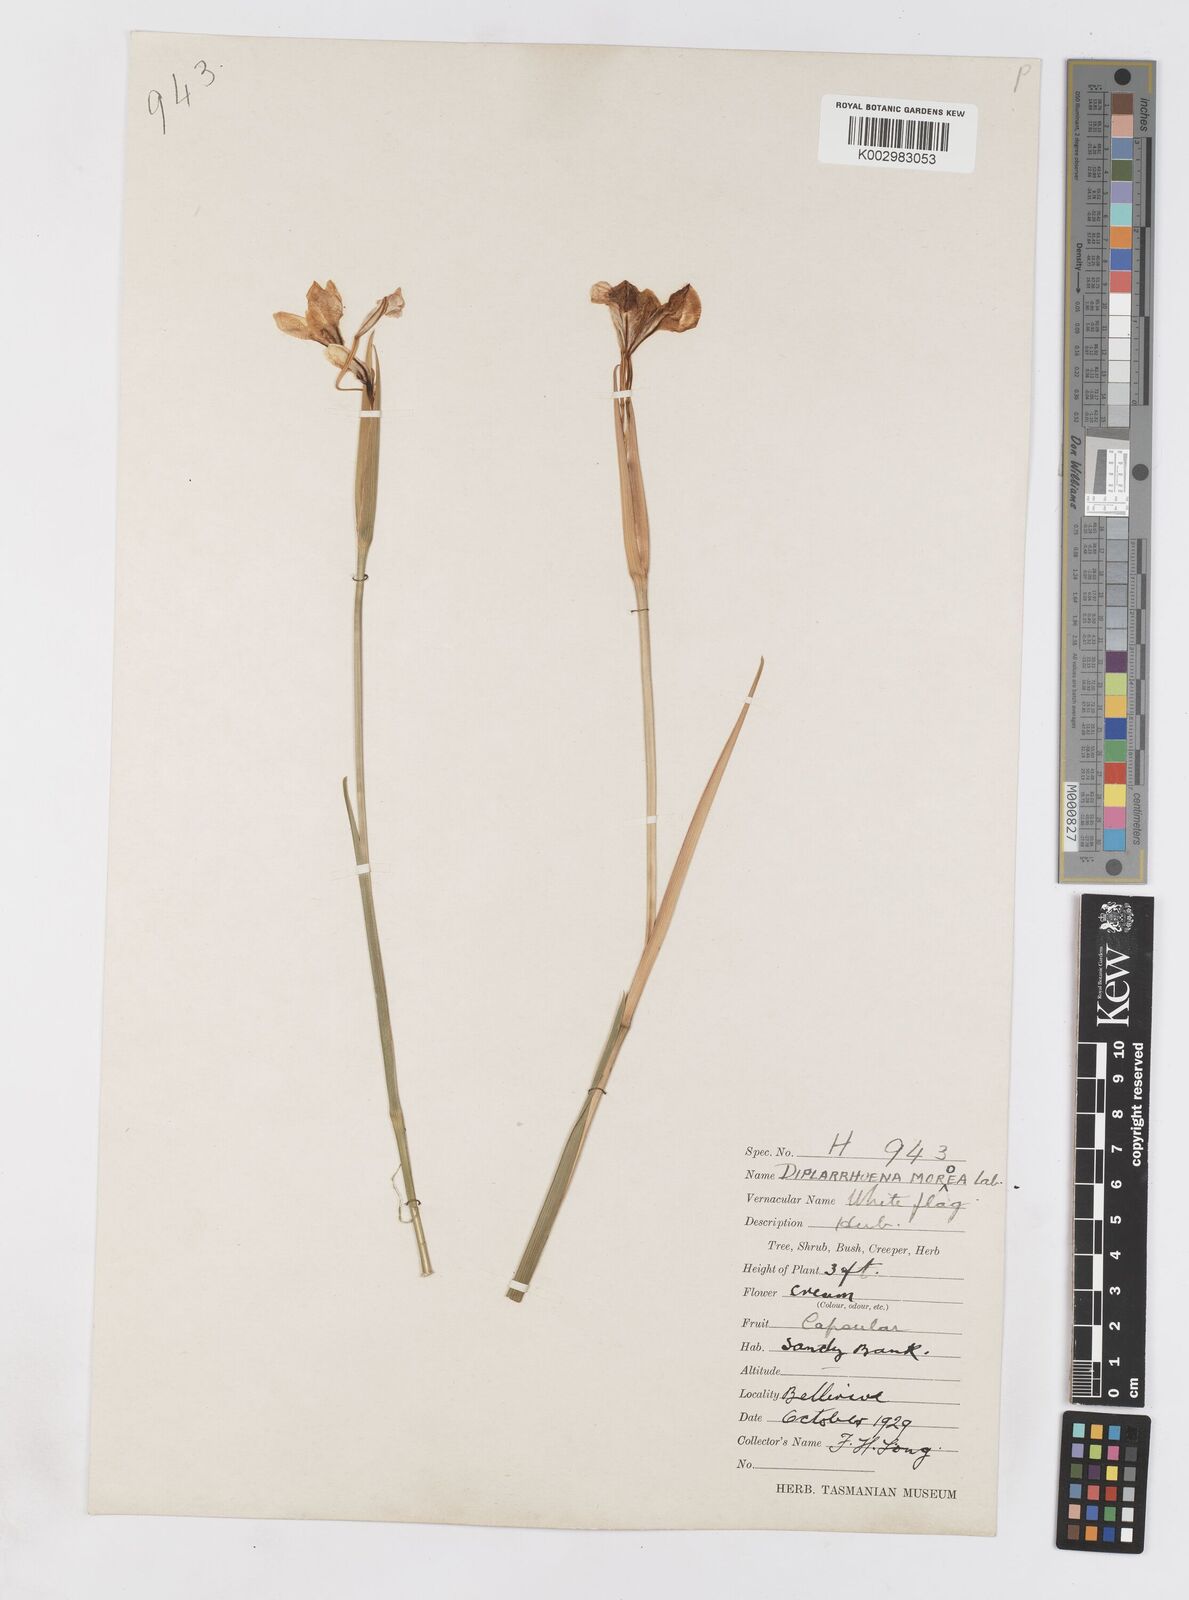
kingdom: Plantae
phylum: Tracheophyta
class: Liliopsida
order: Asparagales
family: Iridaceae
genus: Diplarrena
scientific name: Diplarrena moraea
